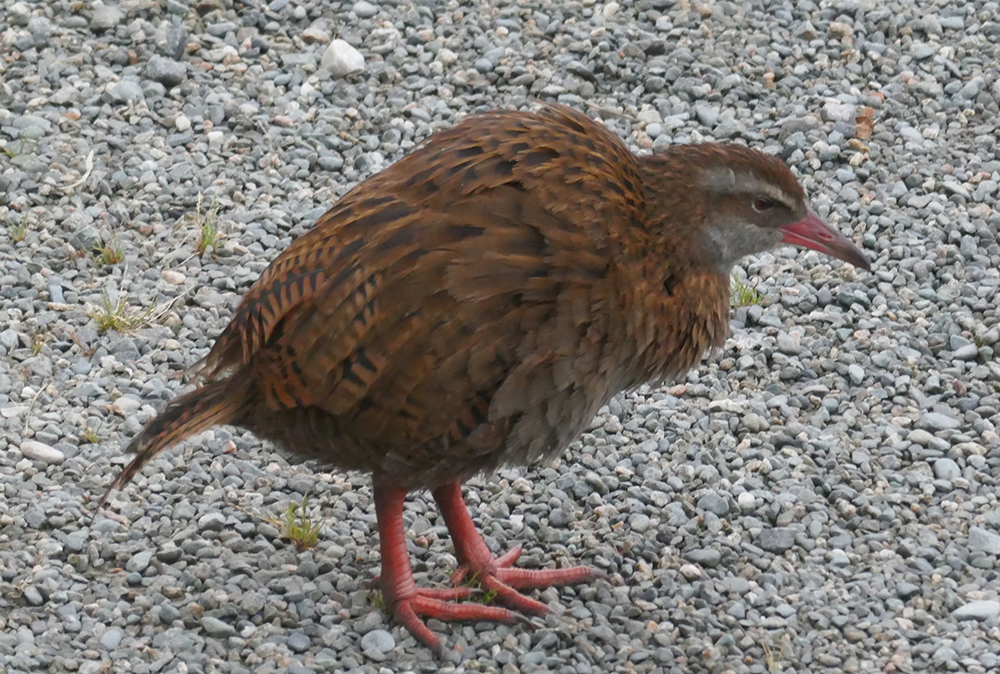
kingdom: Animalia
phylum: Chordata
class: Aves
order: Gruiformes
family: Rallidae
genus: Gallirallus
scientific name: Gallirallus australis
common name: Weka
